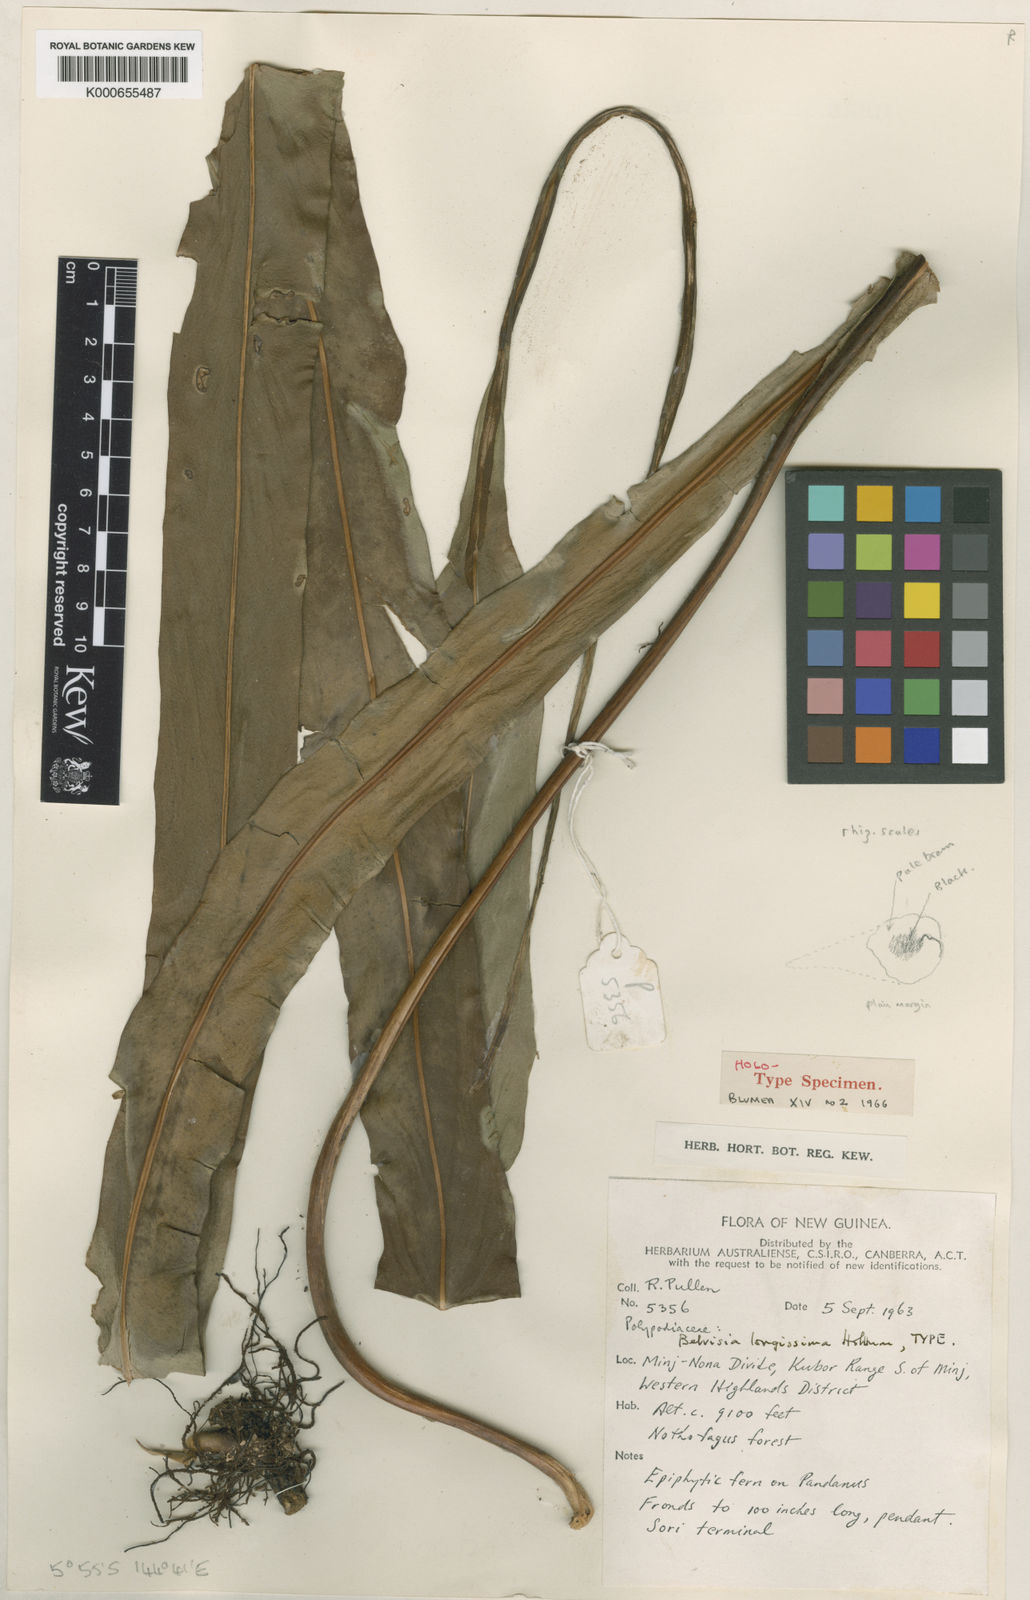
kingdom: Plantae
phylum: Tracheophyta
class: Polypodiopsida
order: Polypodiales
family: Polypodiaceae
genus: Lepisorus
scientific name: Lepisorus validinervis
